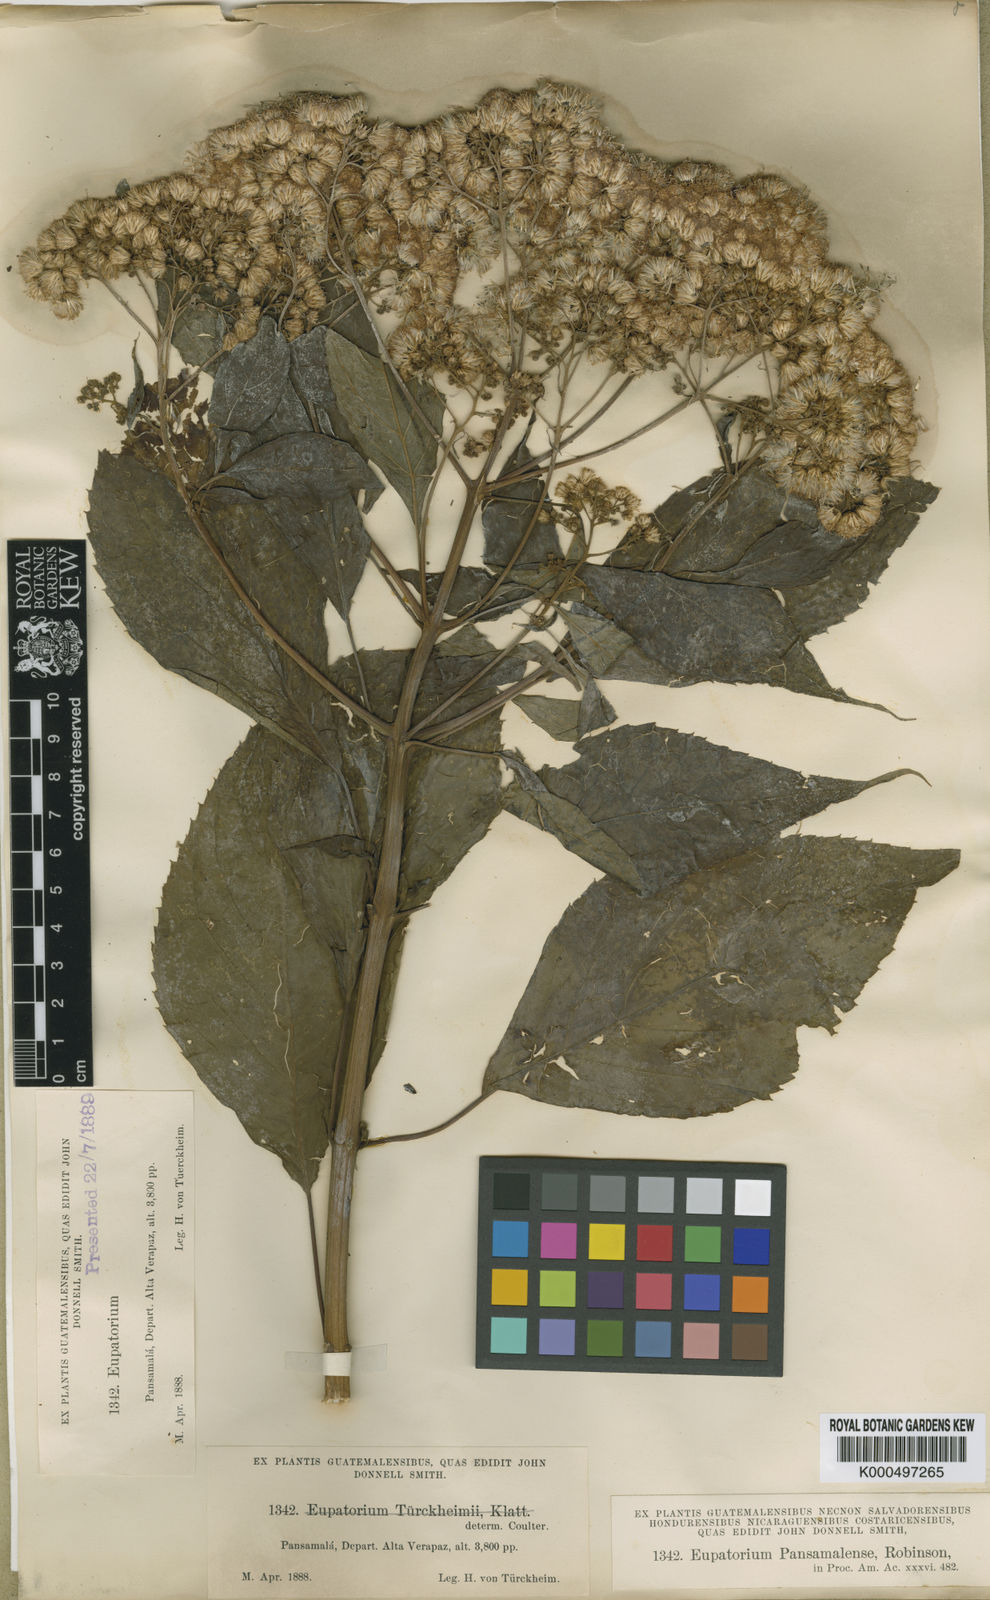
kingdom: Plantae
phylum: Tracheophyta
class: Magnoliopsida
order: Asterales
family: Asteraceae
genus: Bartlettina
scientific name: Bartlettina pansamalensis
